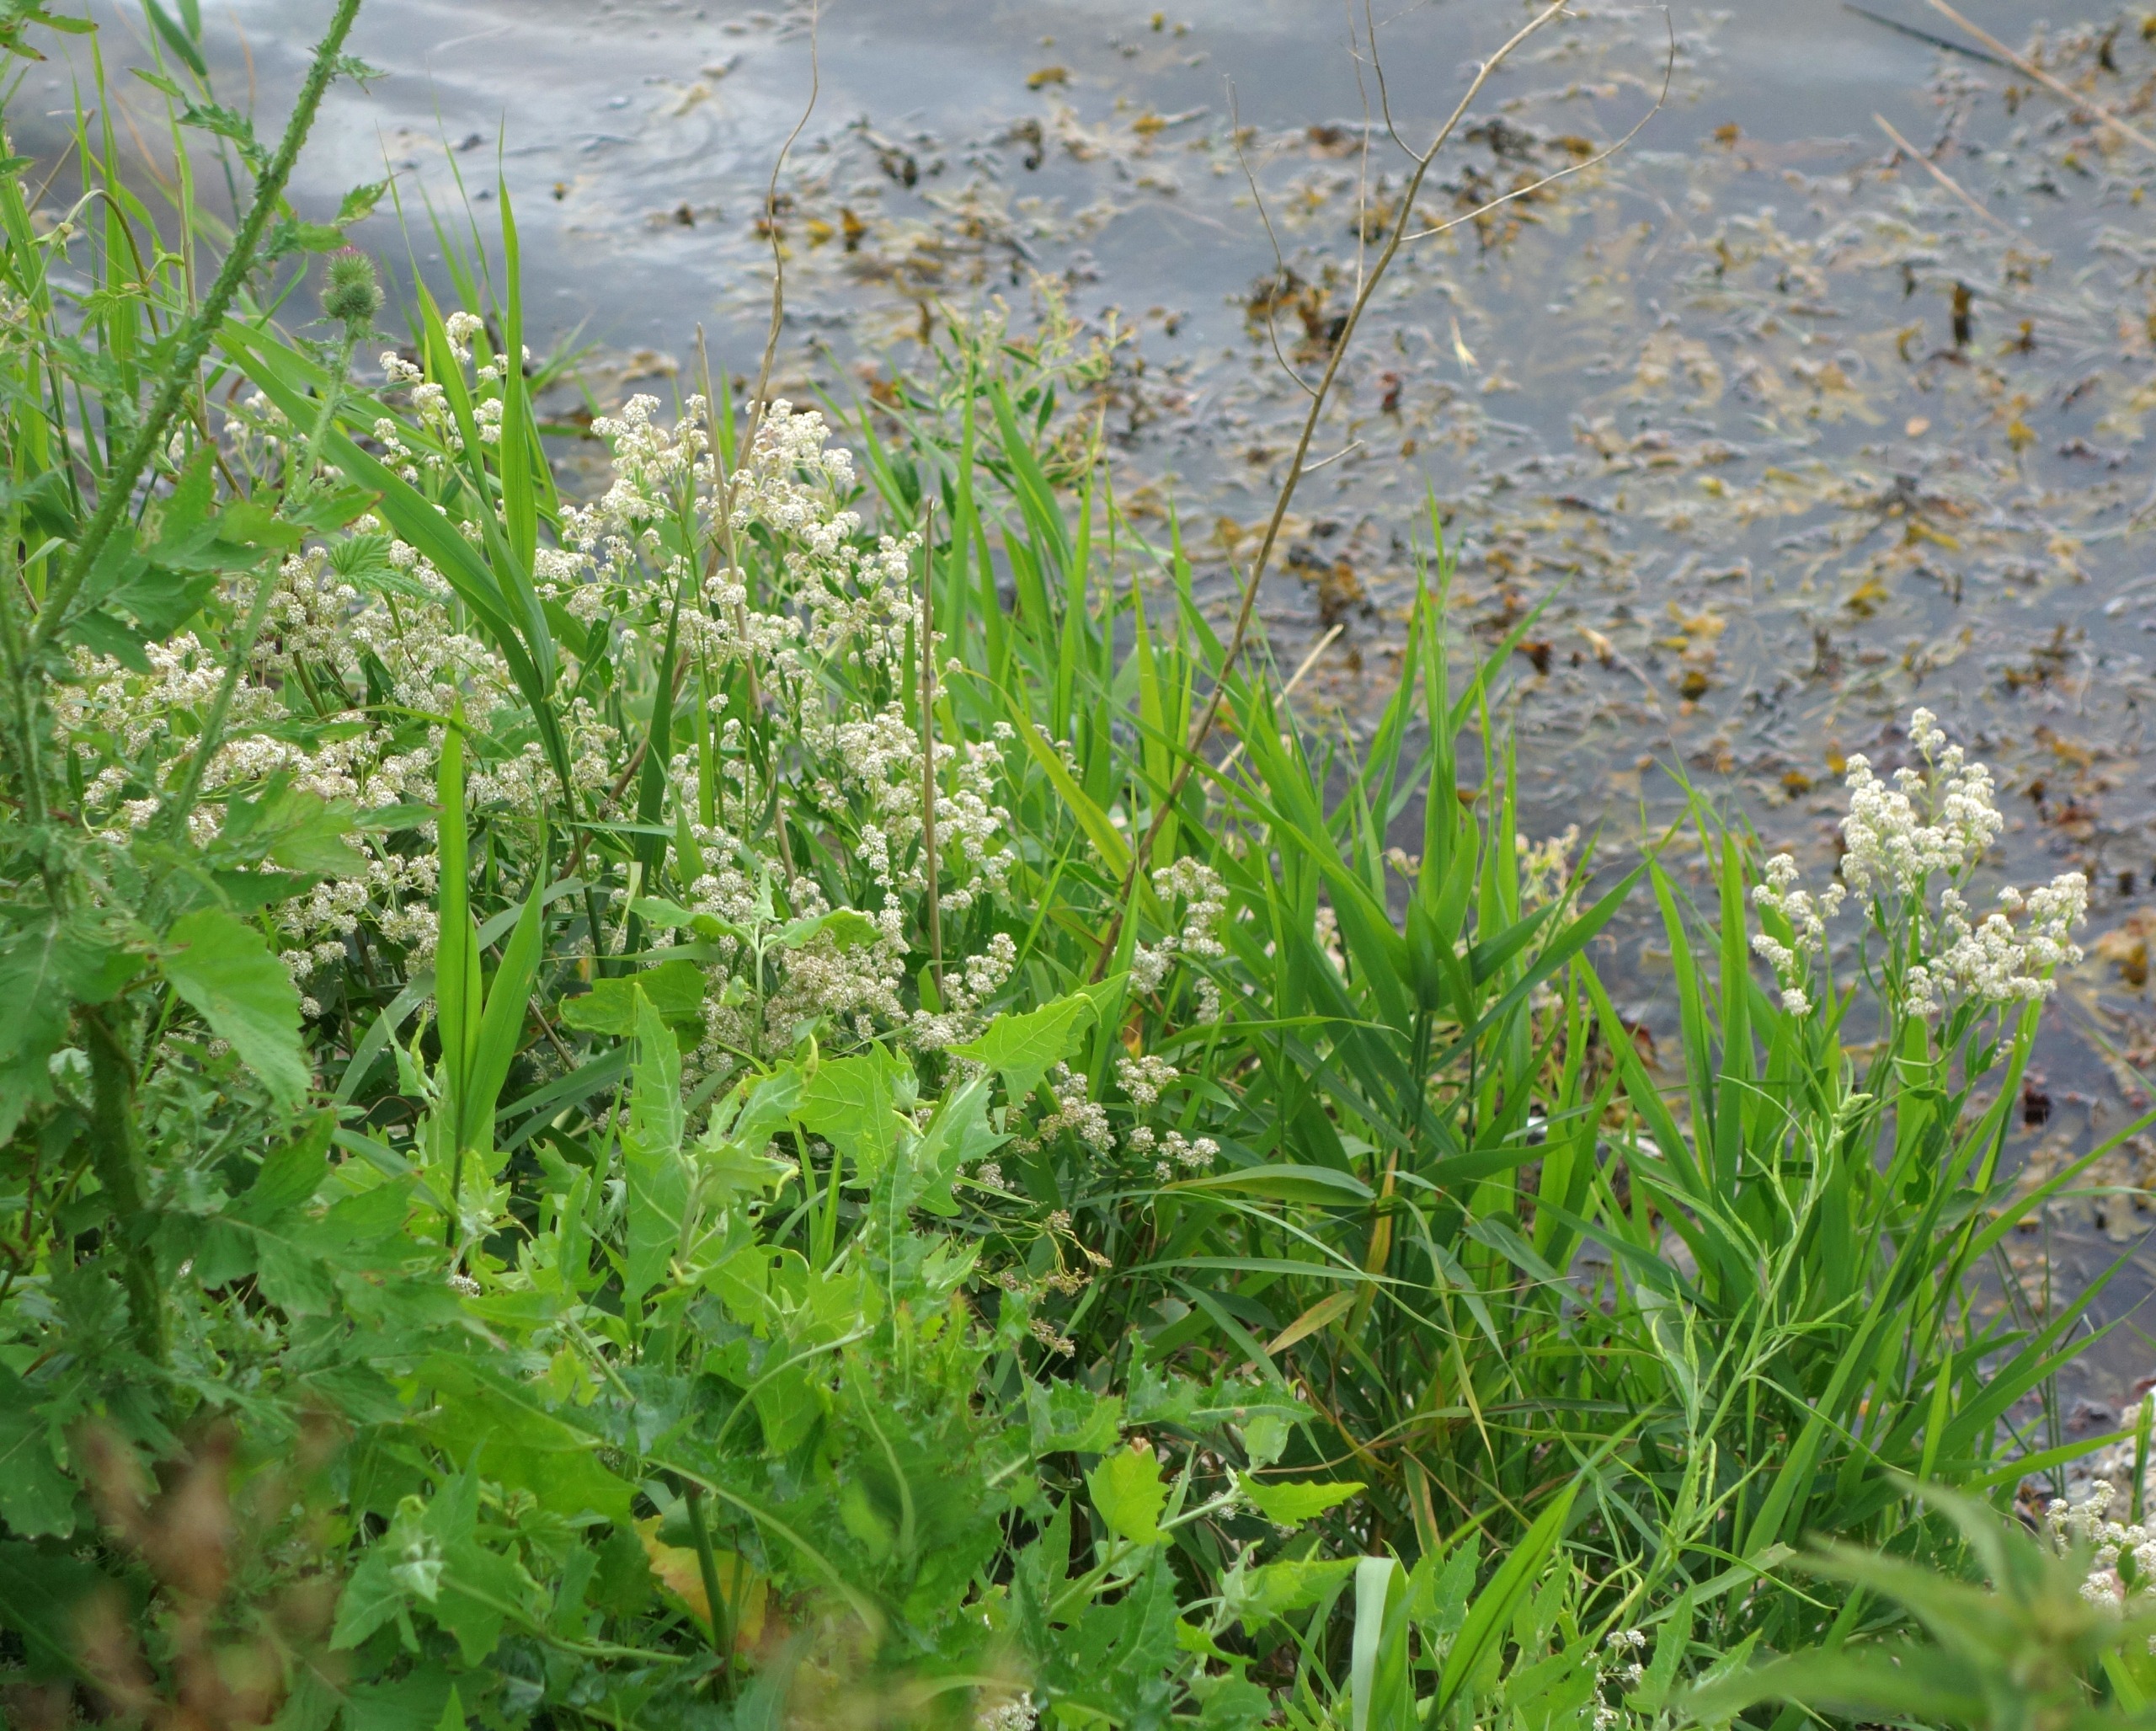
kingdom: Plantae
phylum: Tracheophyta
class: Magnoliopsida
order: Brassicales
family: Brassicaceae
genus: Lepidium
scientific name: Lepidium latifolium
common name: Strand-karse
